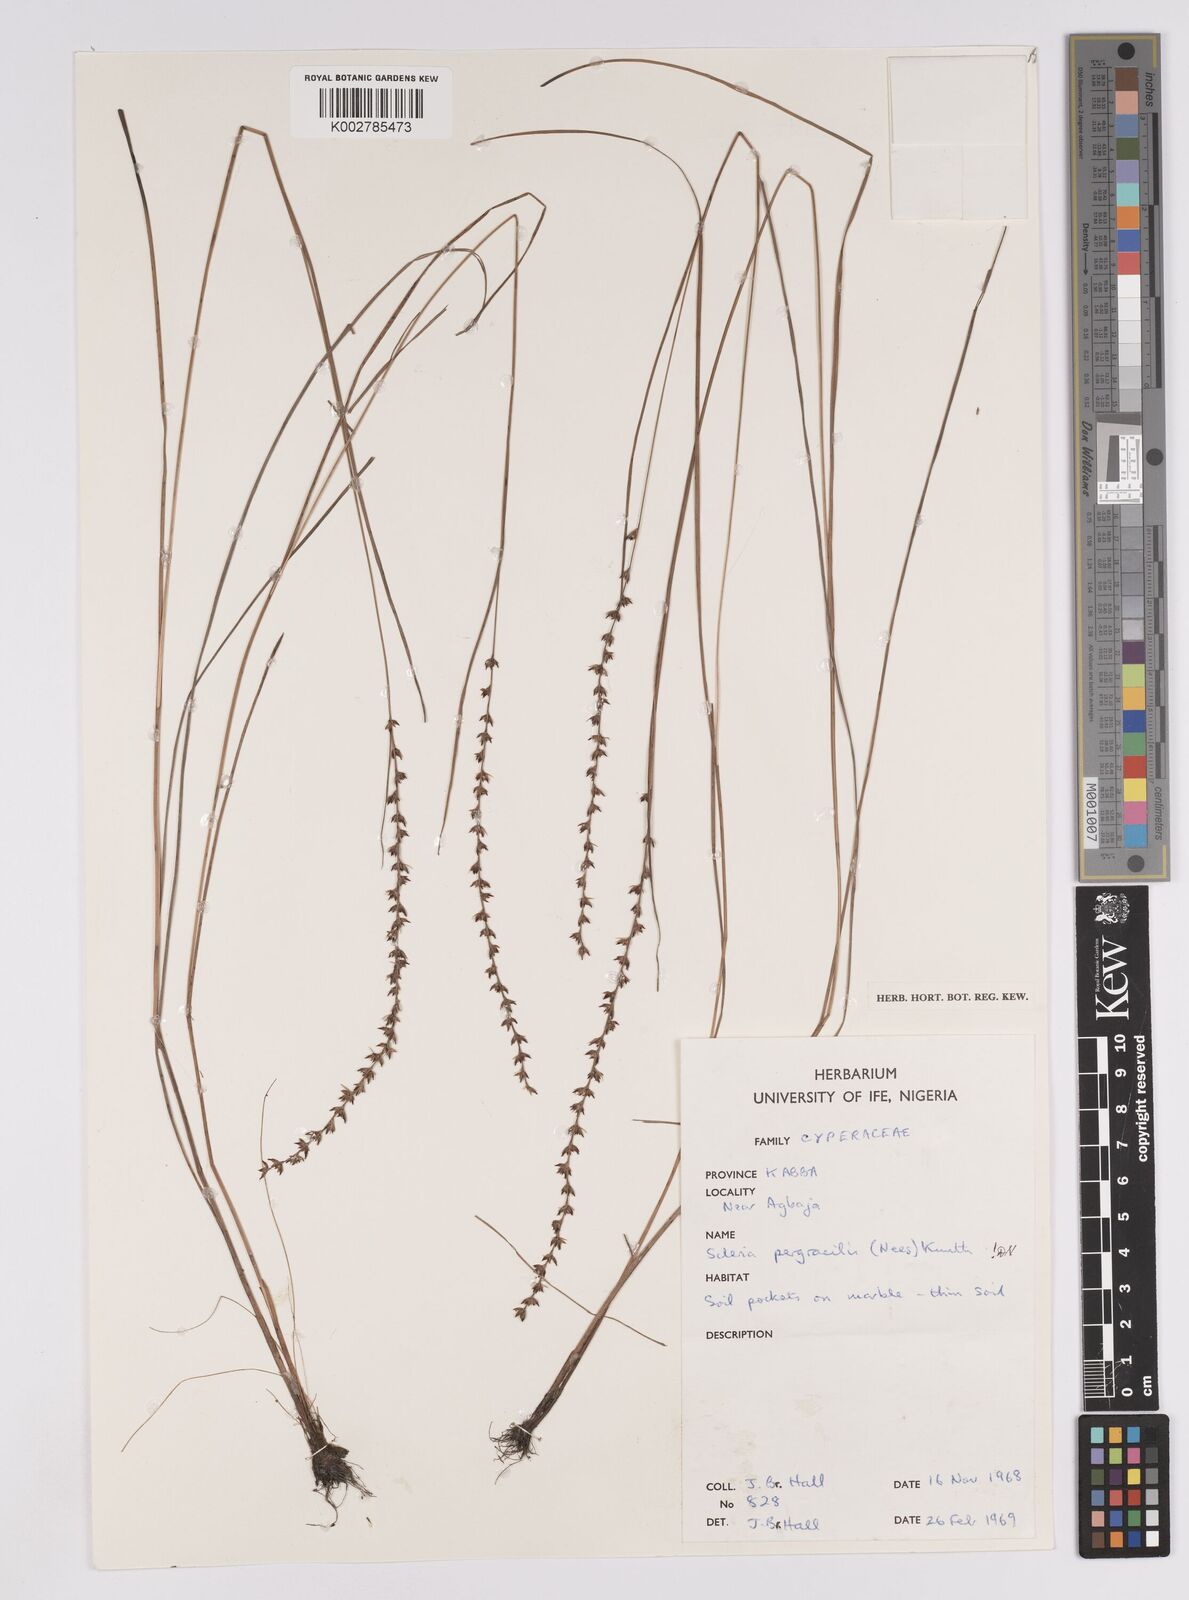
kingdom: Plantae
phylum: Tracheophyta
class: Liliopsida
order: Poales
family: Cyperaceae
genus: Scleria
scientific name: Scleria pergracilis
